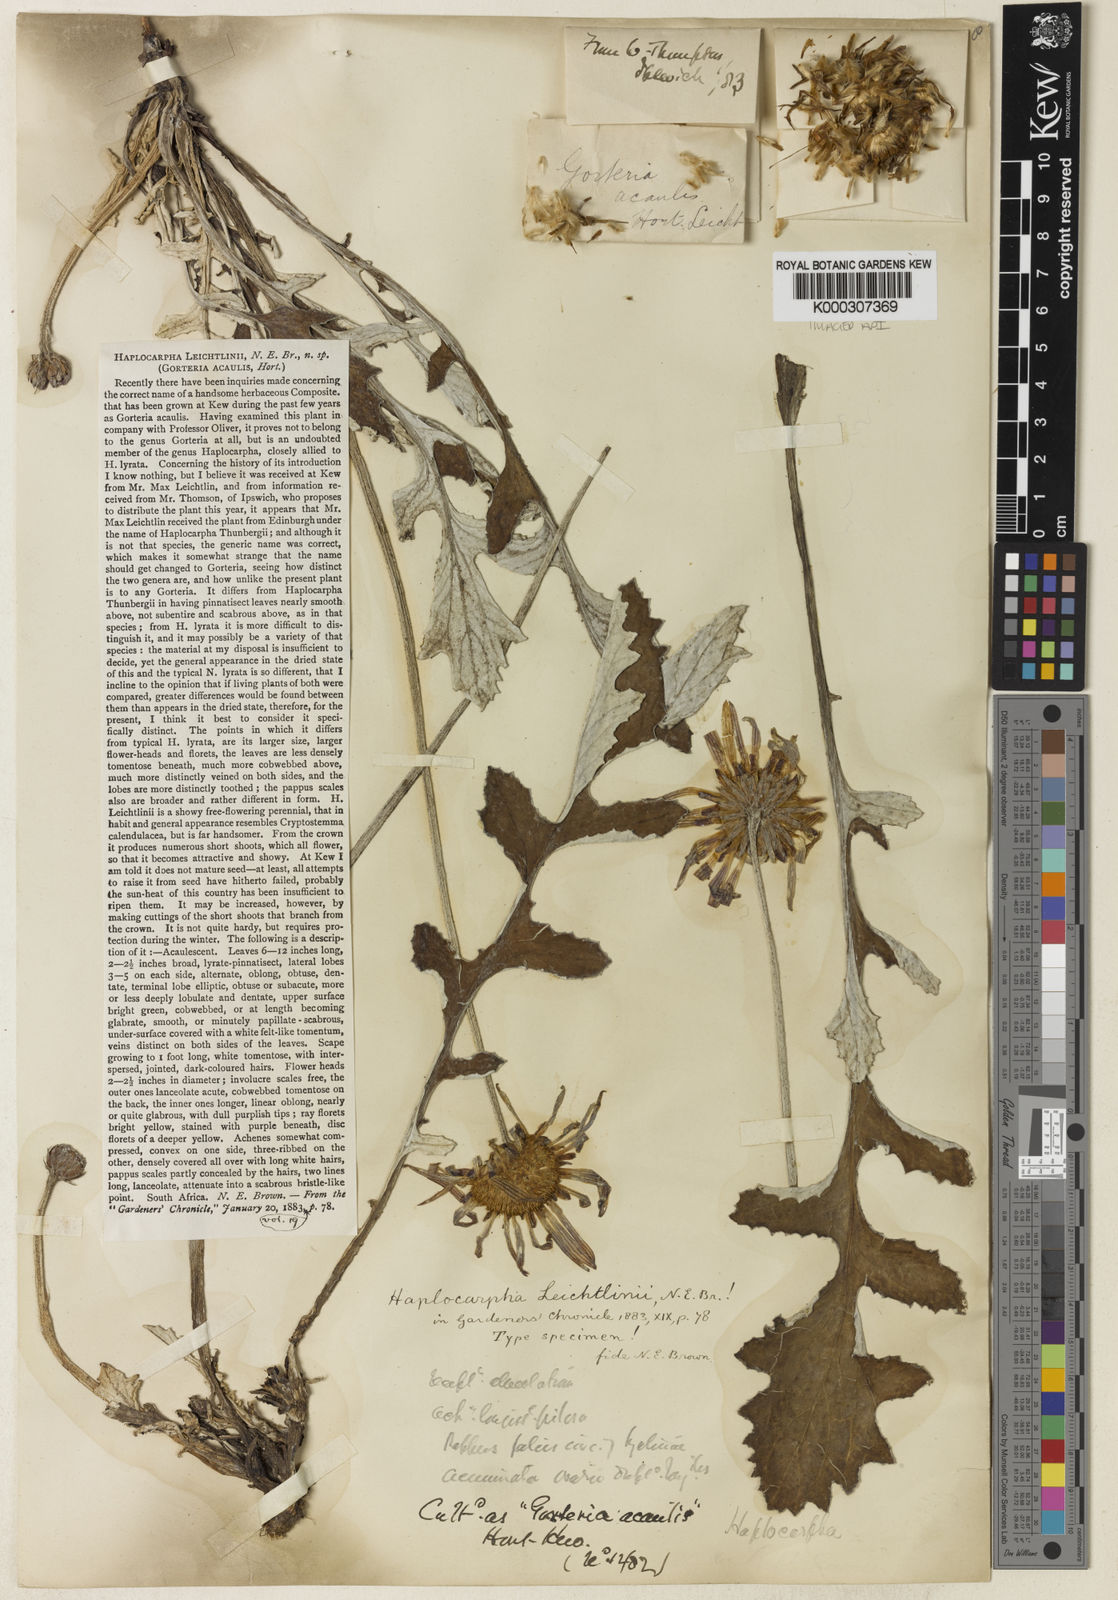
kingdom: Plantae
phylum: Tracheophyta
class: Magnoliopsida
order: Asterales
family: Asteraceae
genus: Haplocarpha
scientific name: Haplocarpha lyrata
